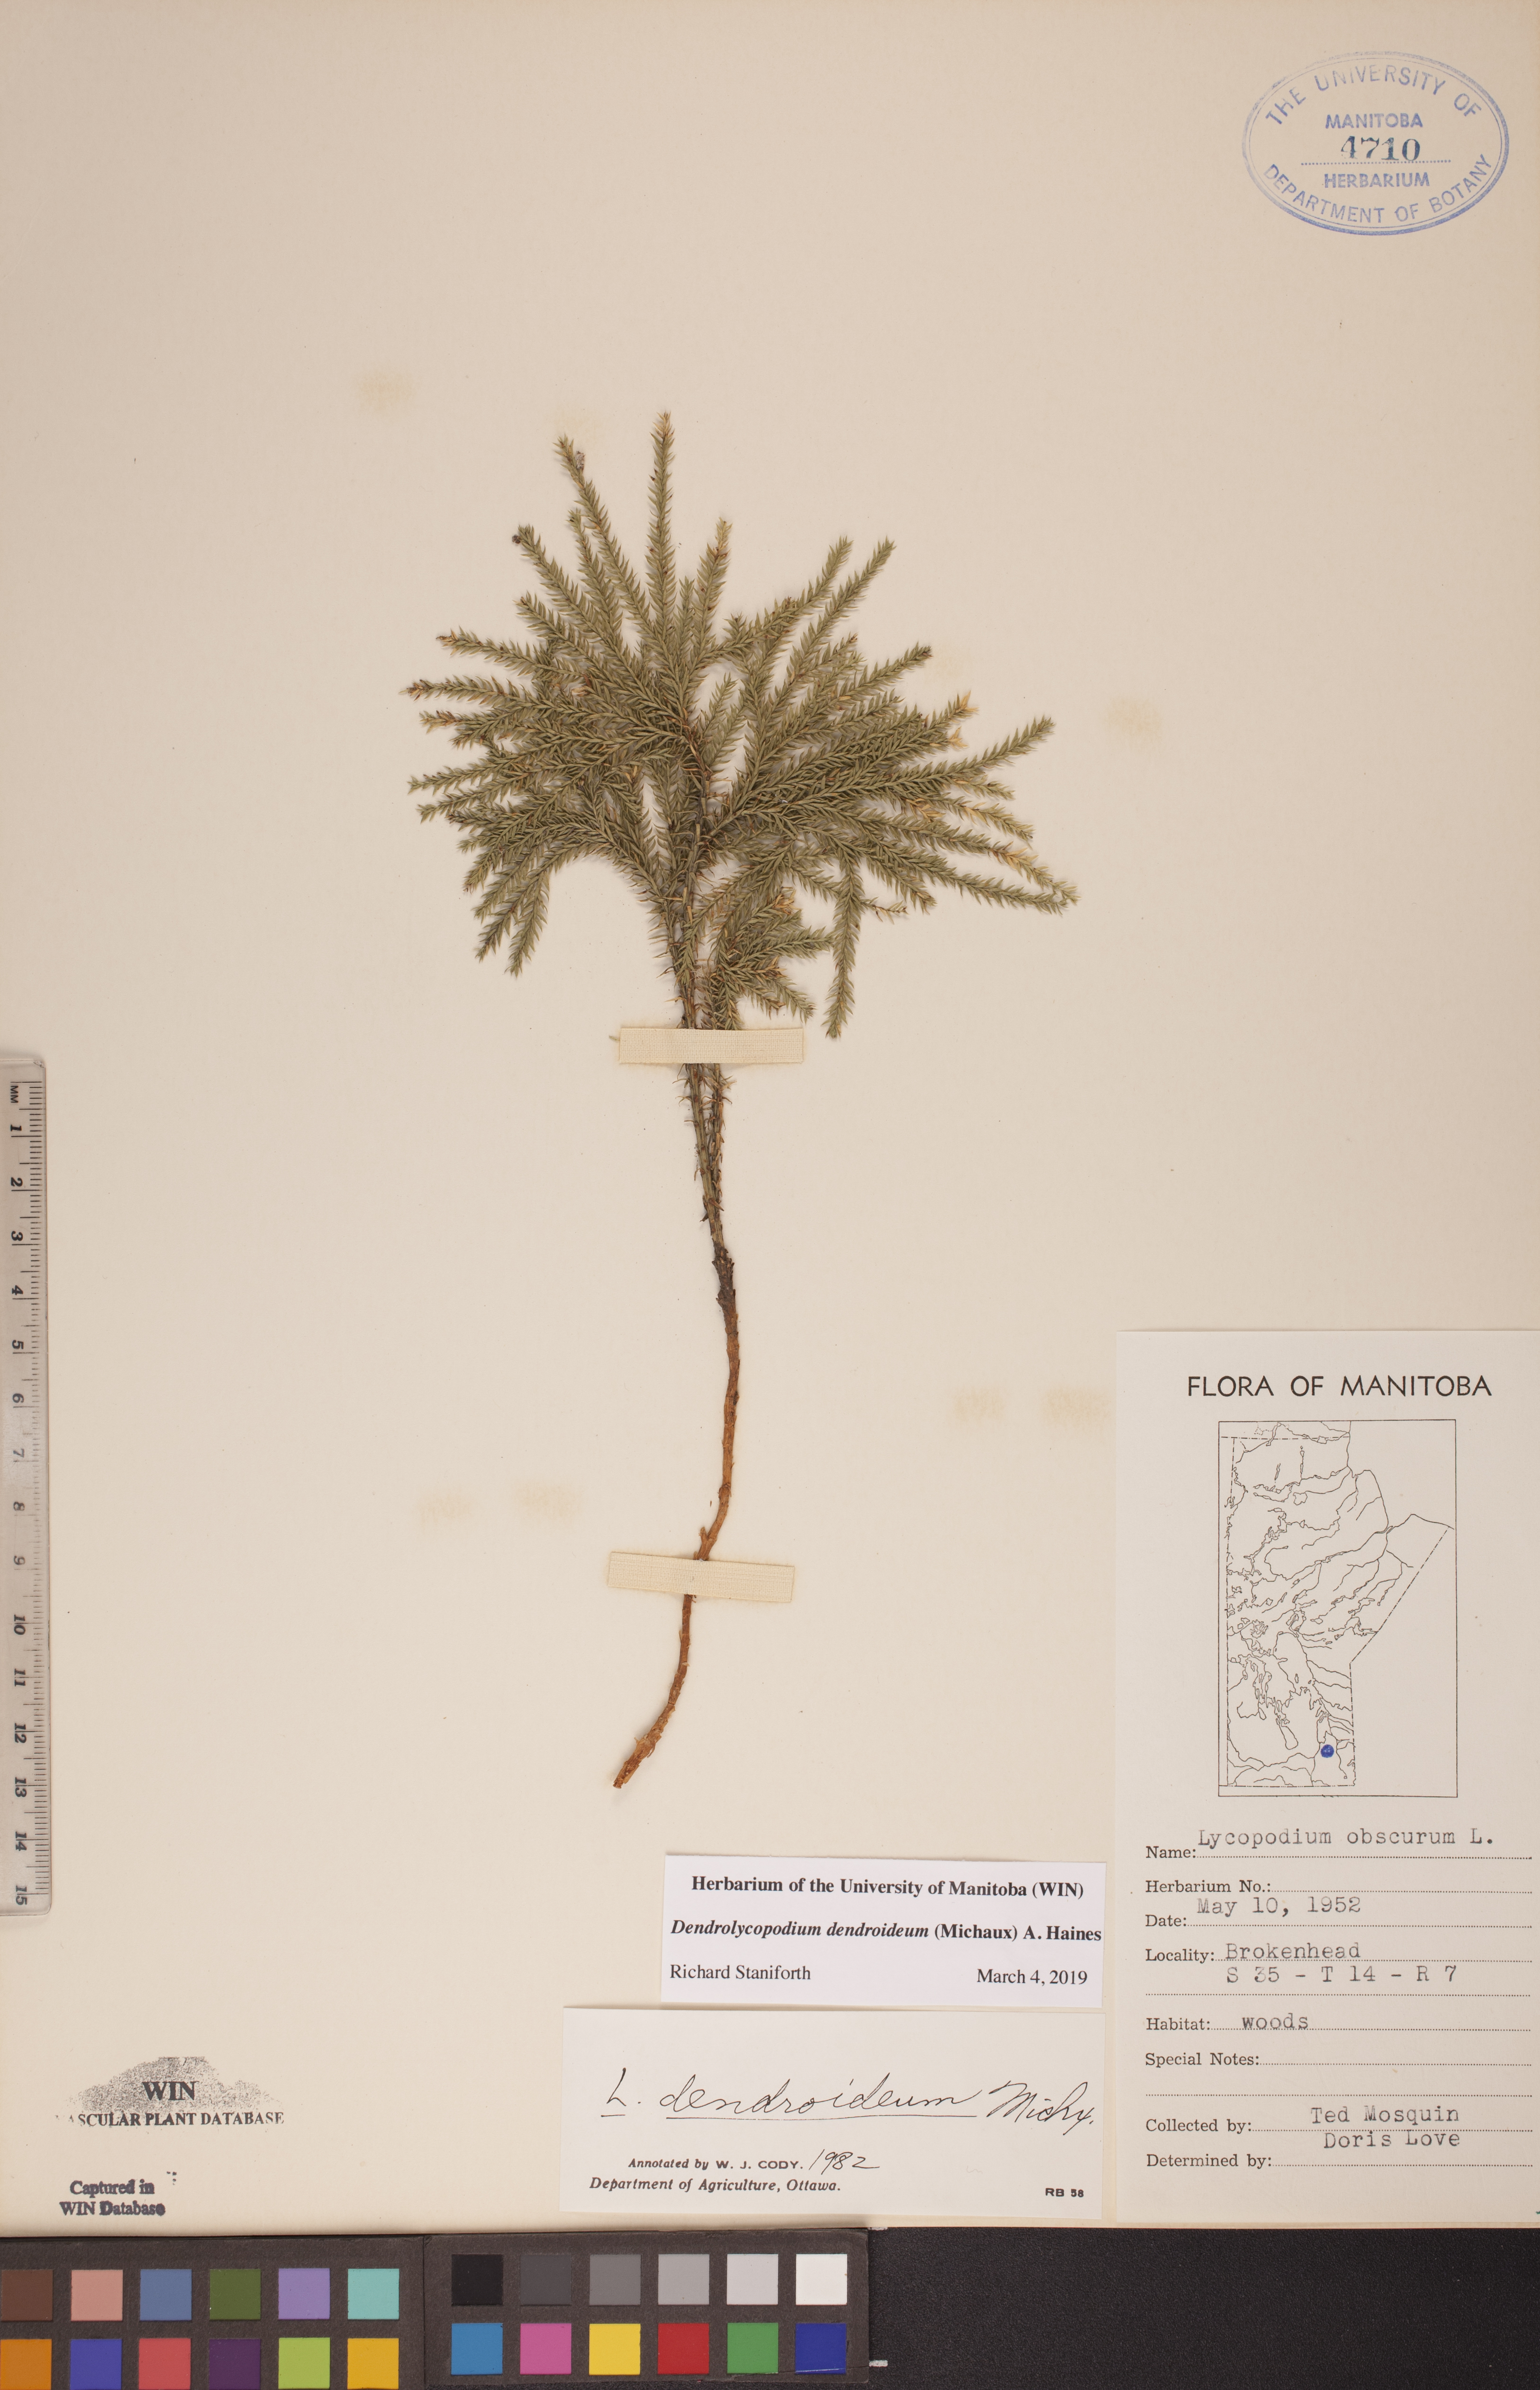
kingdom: Plantae
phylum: Tracheophyta
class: Lycopodiopsida
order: Lycopodiales
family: Lycopodiaceae
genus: Dendrolycopodium
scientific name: Dendrolycopodium dendroideum
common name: Northern tree-clubmoss
